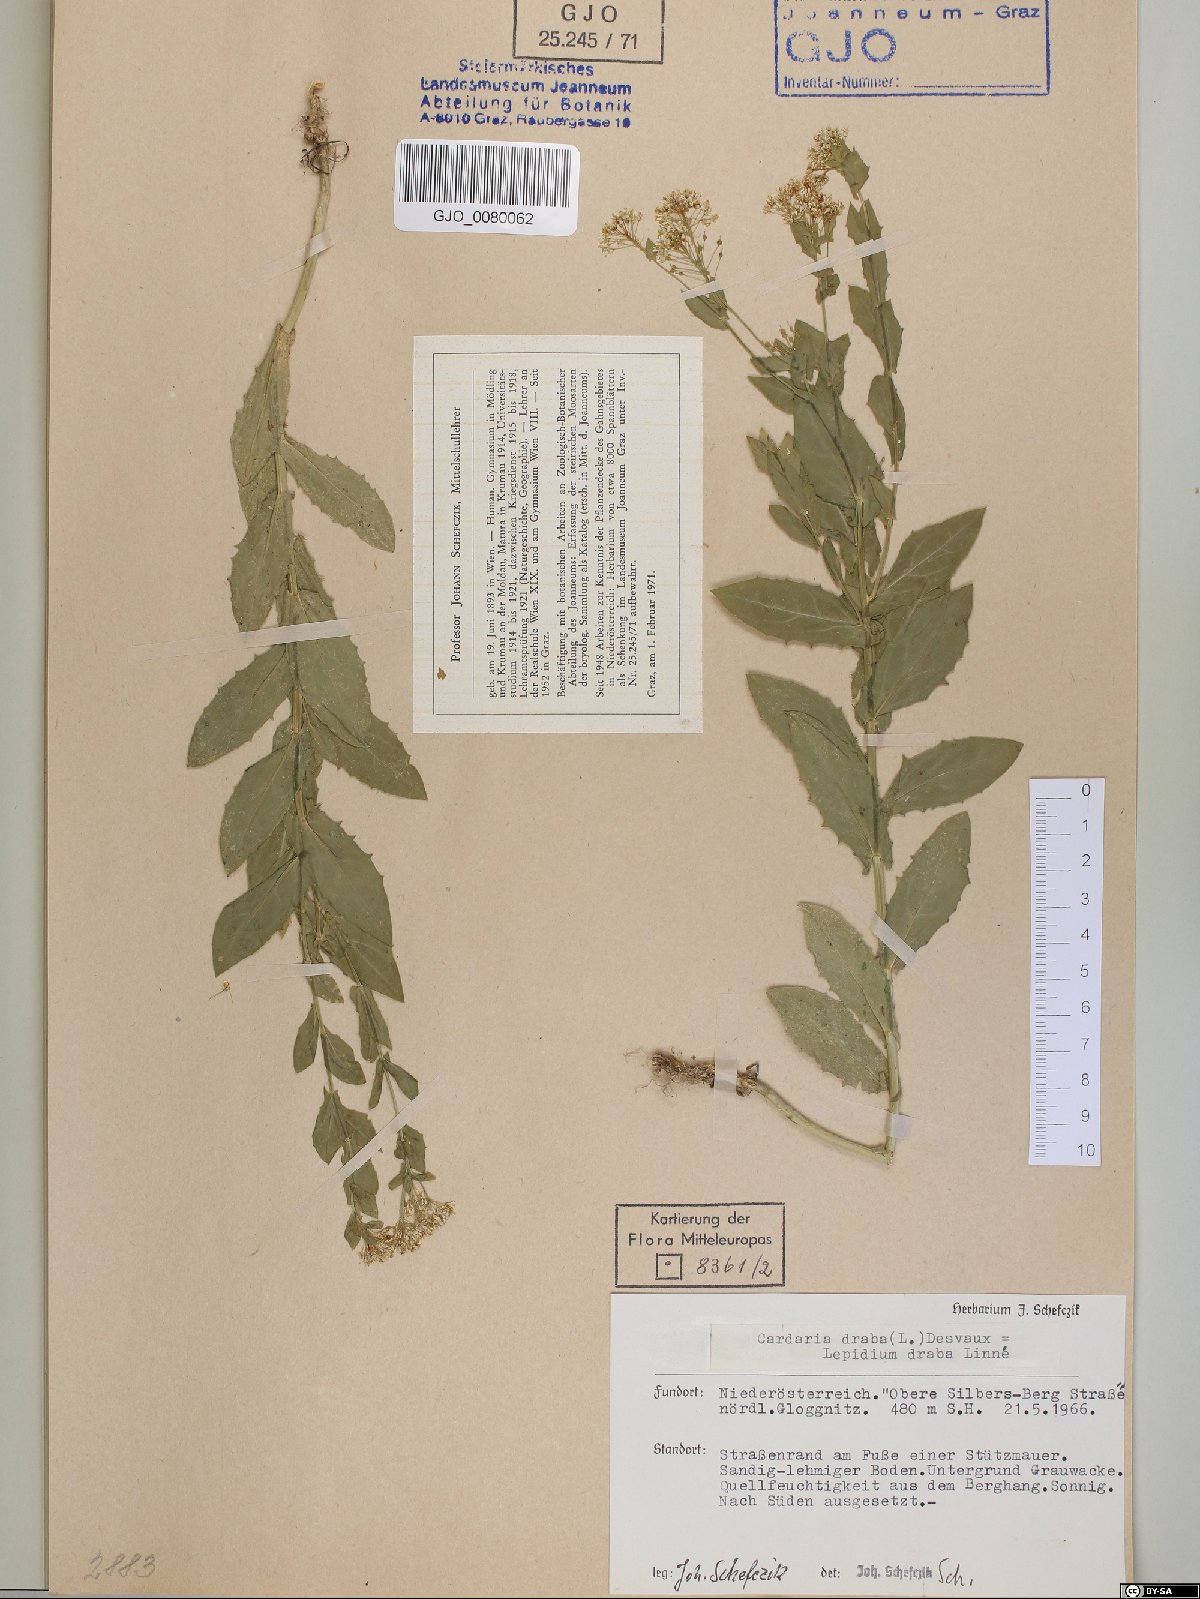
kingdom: Plantae
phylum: Tracheophyta
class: Magnoliopsida
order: Brassicales
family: Brassicaceae
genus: Lepidium
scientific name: Lepidium draba
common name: Hoary cress
